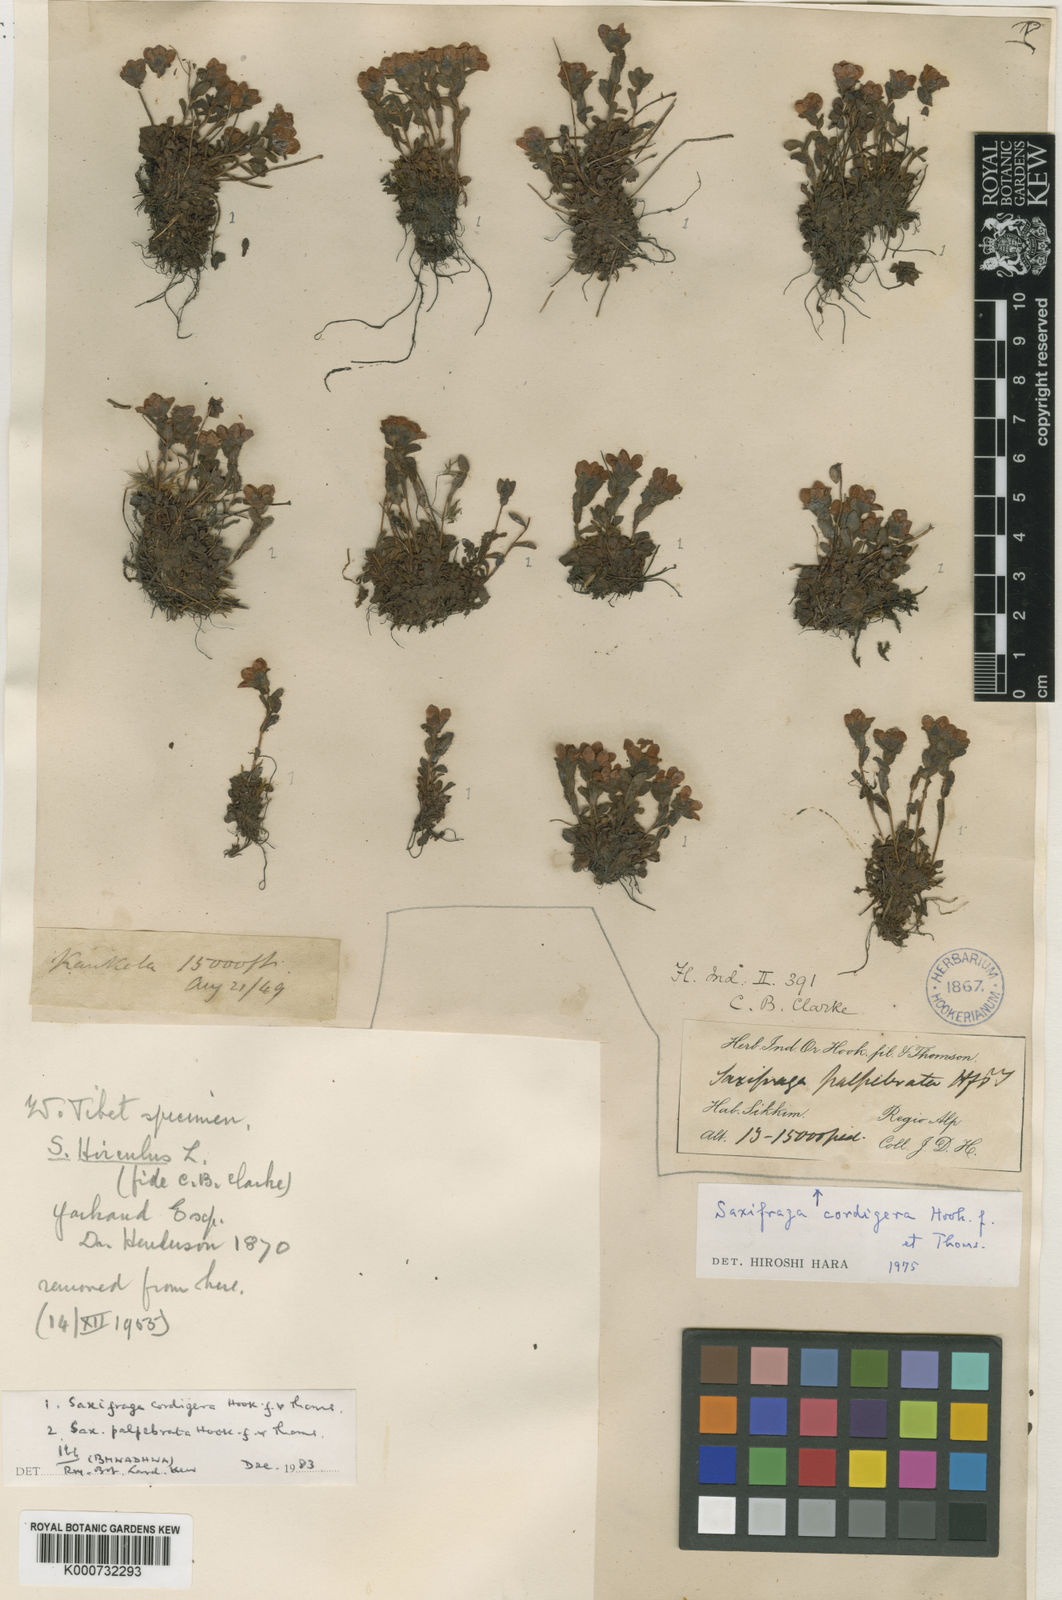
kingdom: Plantae
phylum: Tracheophyta
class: Magnoliopsida
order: Saxifragales
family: Saxifragaceae
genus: Saxifraga
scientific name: Saxifraga palpebrata
